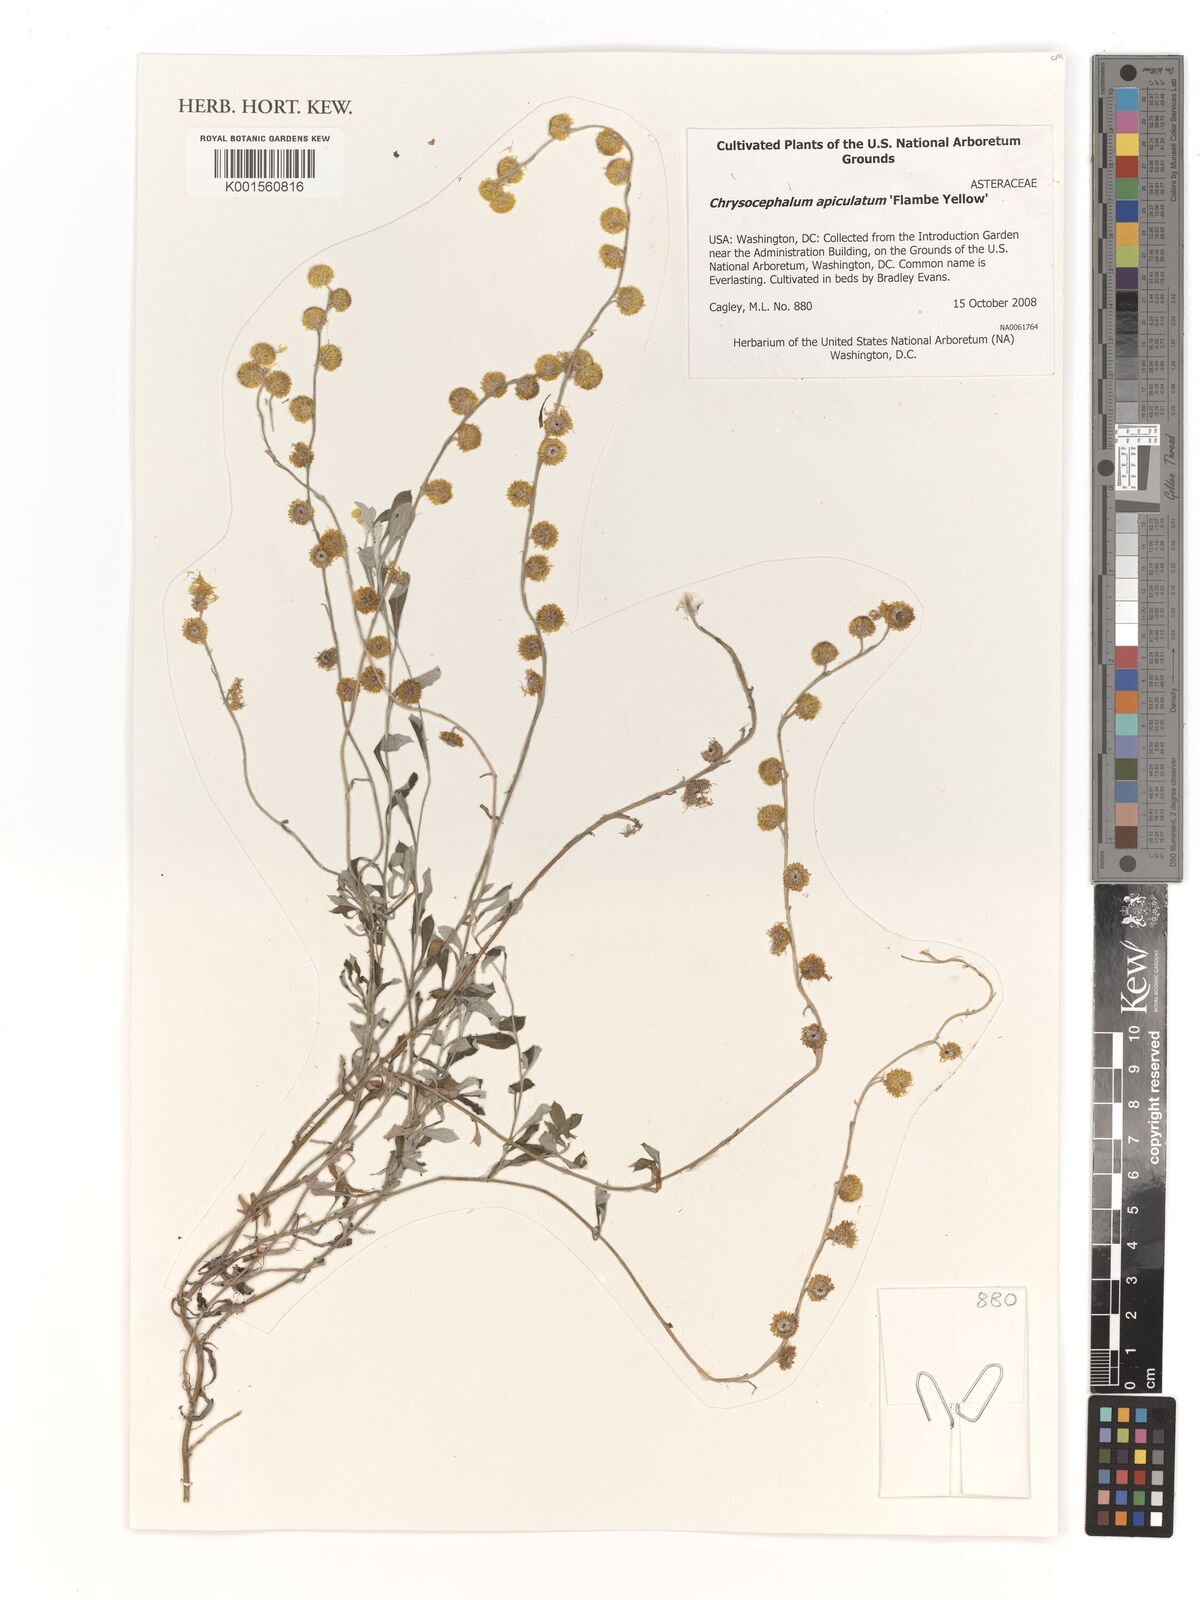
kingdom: Plantae
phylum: Tracheophyta
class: Magnoliopsida
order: Asterales
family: Asteraceae
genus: Chrysocephalum
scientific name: Chrysocephalum apiculatum
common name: Common everlasting
